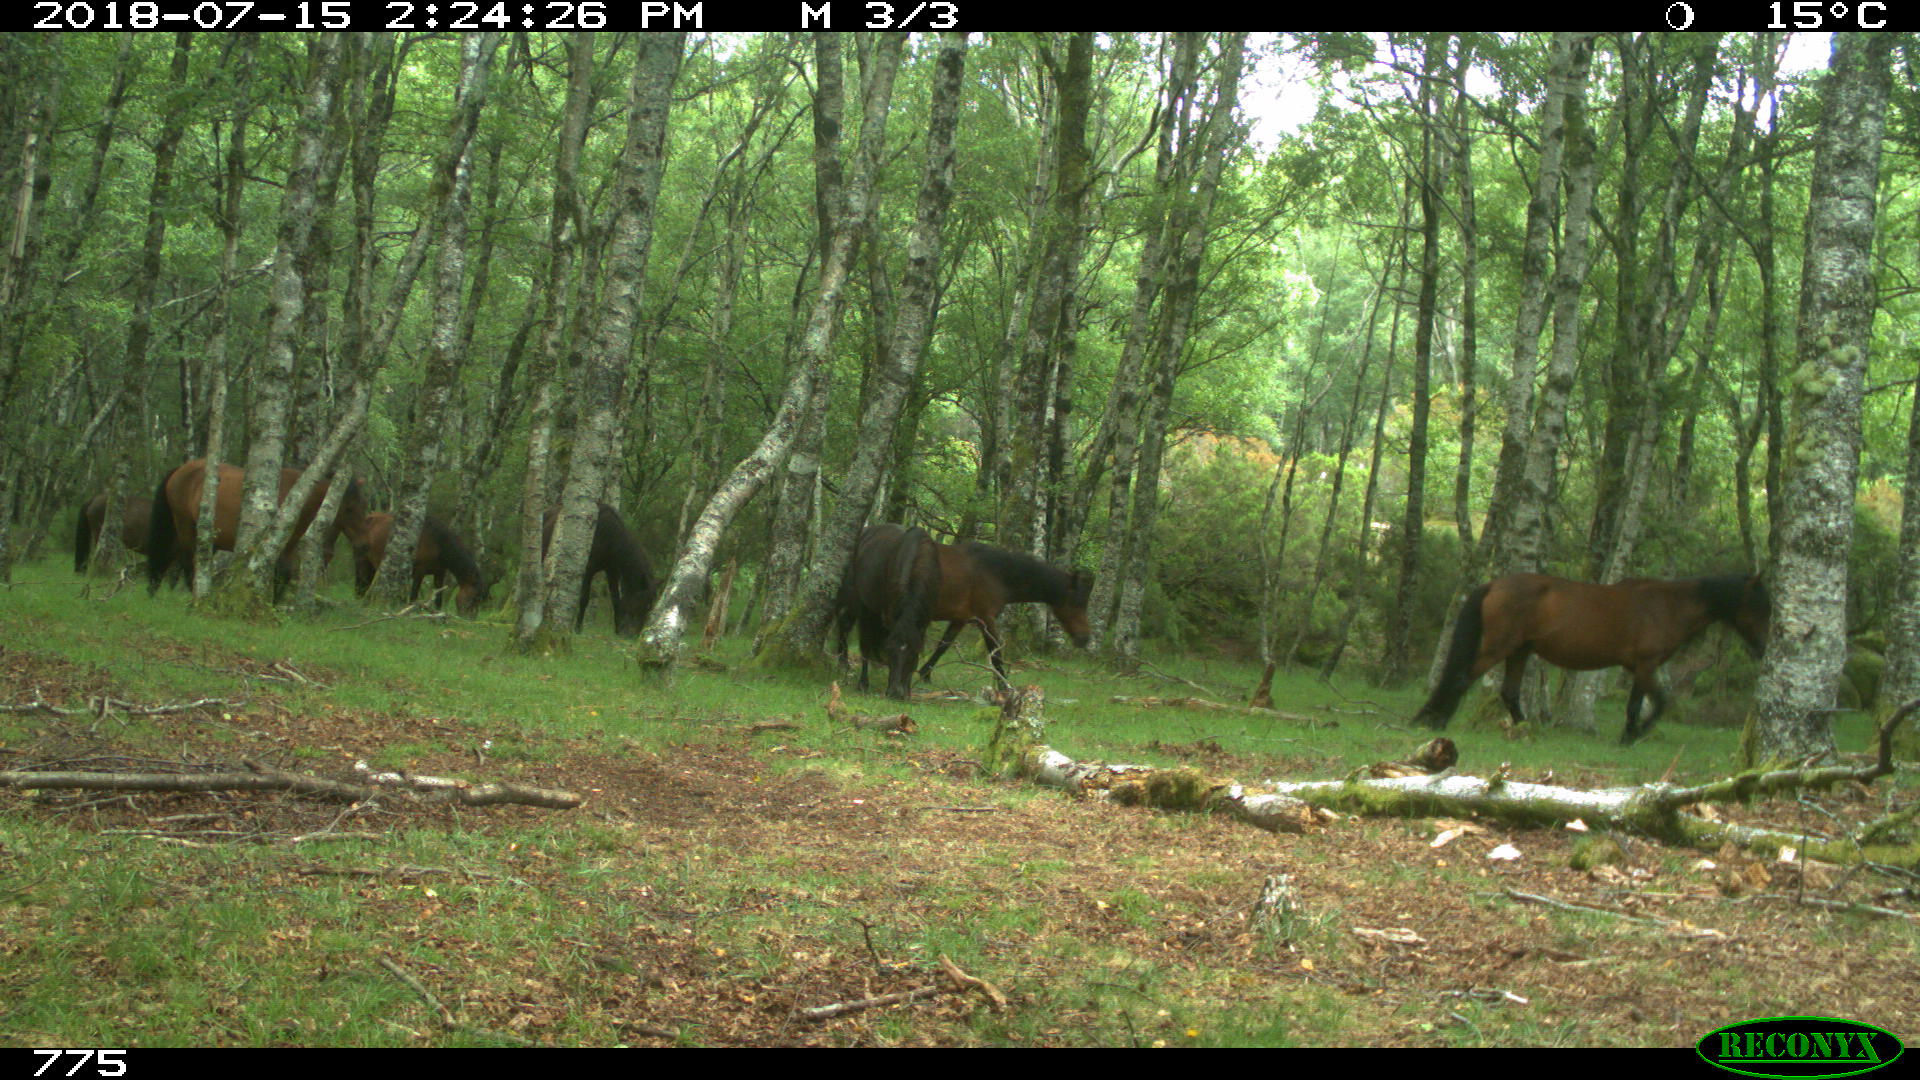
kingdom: Animalia
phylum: Chordata
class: Mammalia
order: Perissodactyla
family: Equidae
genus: Equus
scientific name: Equus caballus
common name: Horse
